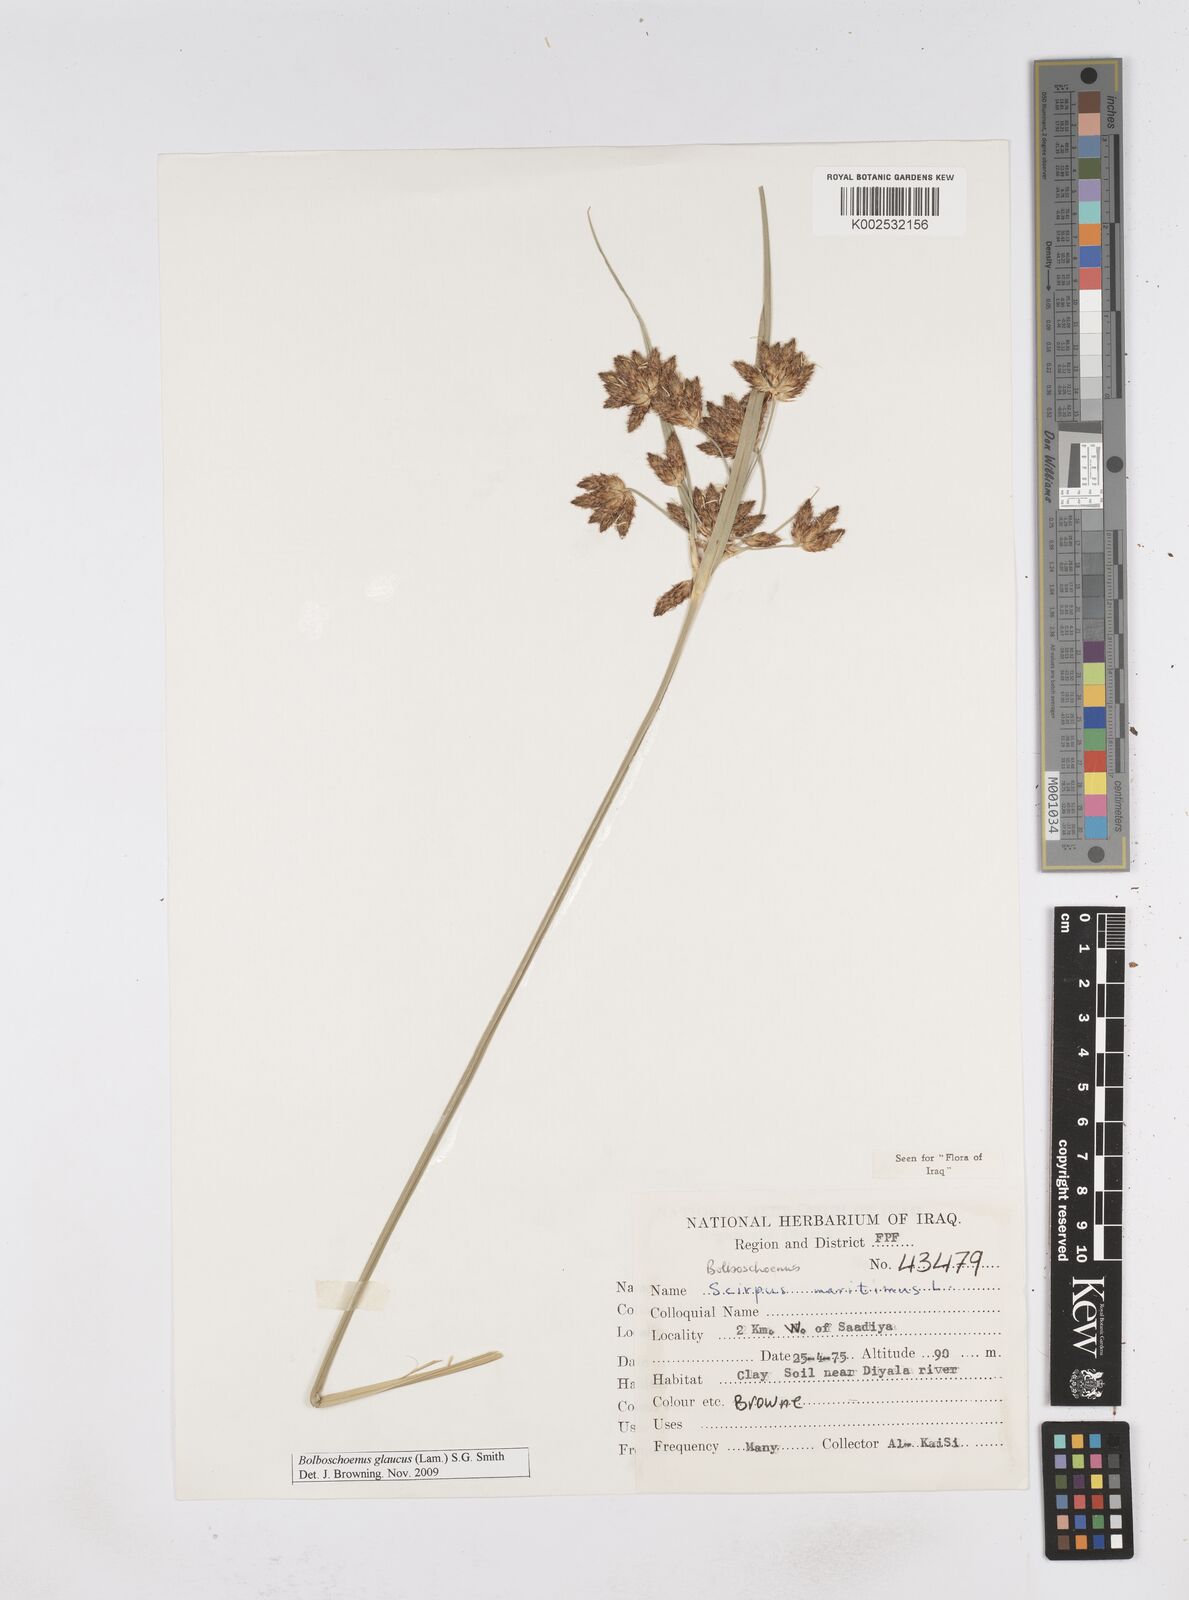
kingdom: Plantae
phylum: Tracheophyta
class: Liliopsida
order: Poales
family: Cyperaceae
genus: Bolboschoenus
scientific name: Bolboschoenus maritimus
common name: Sea club-rush
